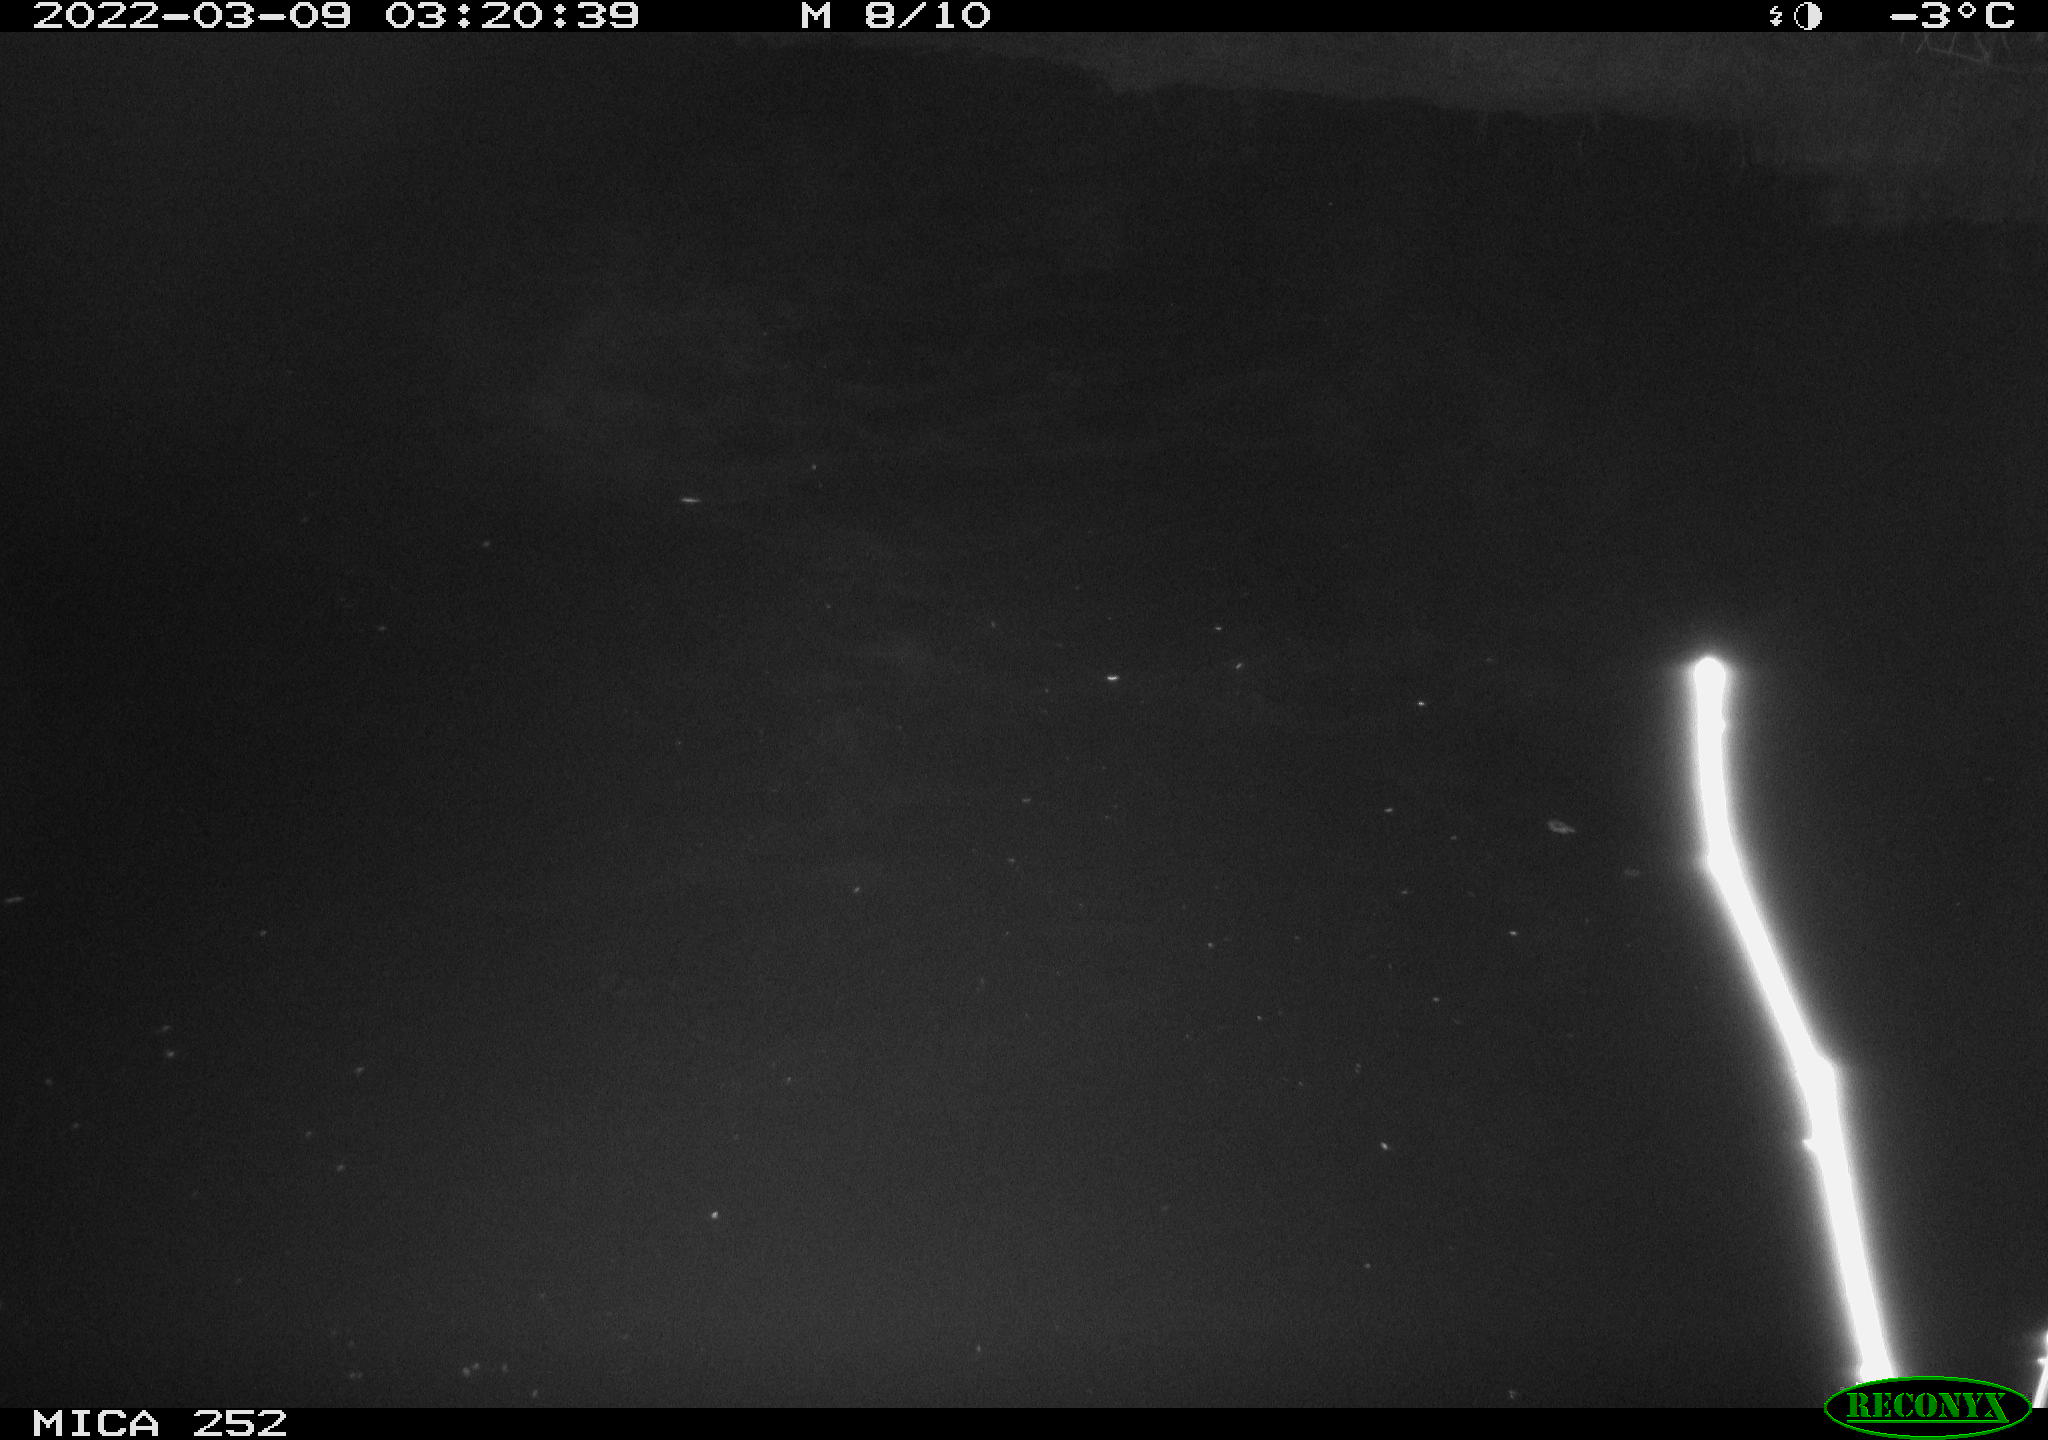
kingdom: Animalia
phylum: Chordata
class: Mammalia
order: Rodentia
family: Castoridae
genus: Castor
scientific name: Castor fiber
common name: Eurasian beaver
